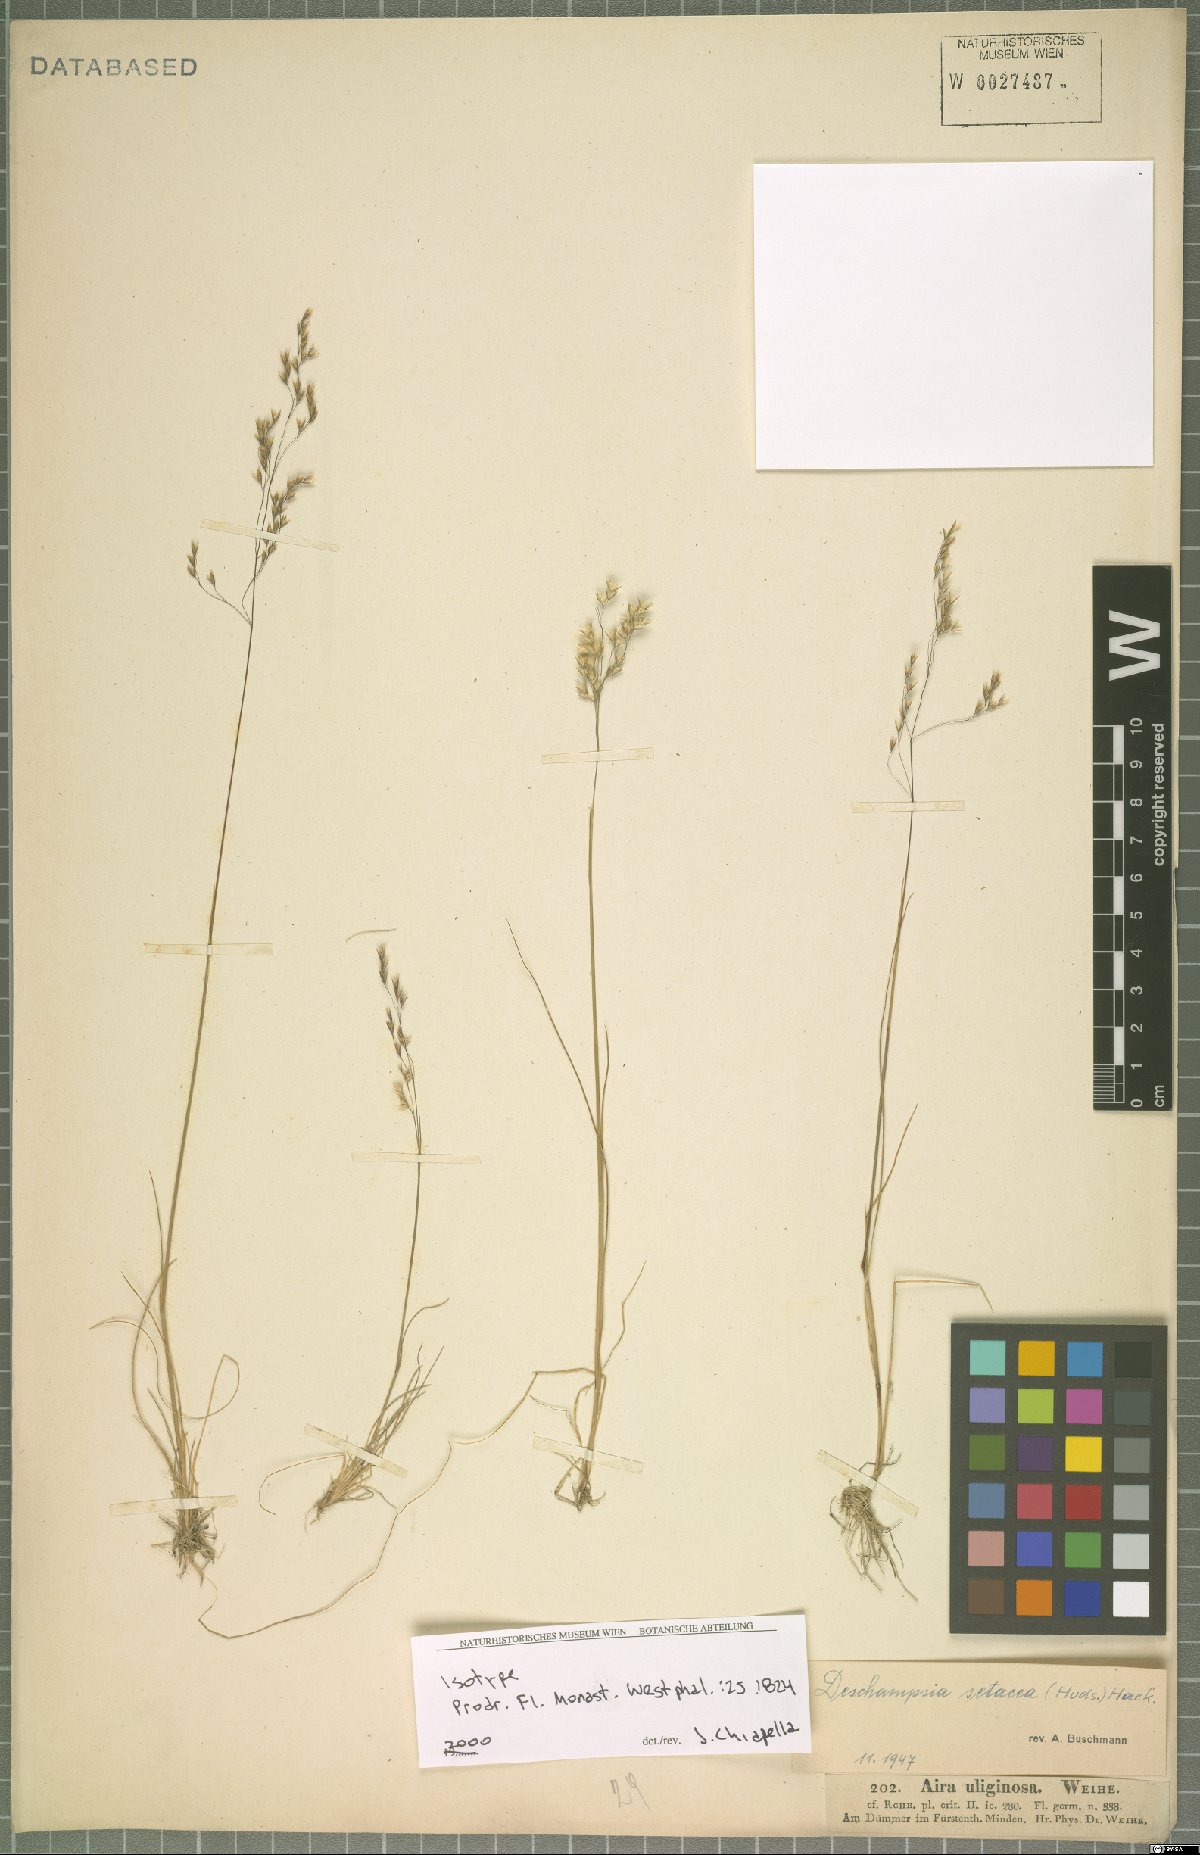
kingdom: Plantae
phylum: Tracheophyta
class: Liliopsida
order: Poales
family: Poaceae
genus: Deschampsia
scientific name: Deschampsia setacea
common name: Bog hair-grass
